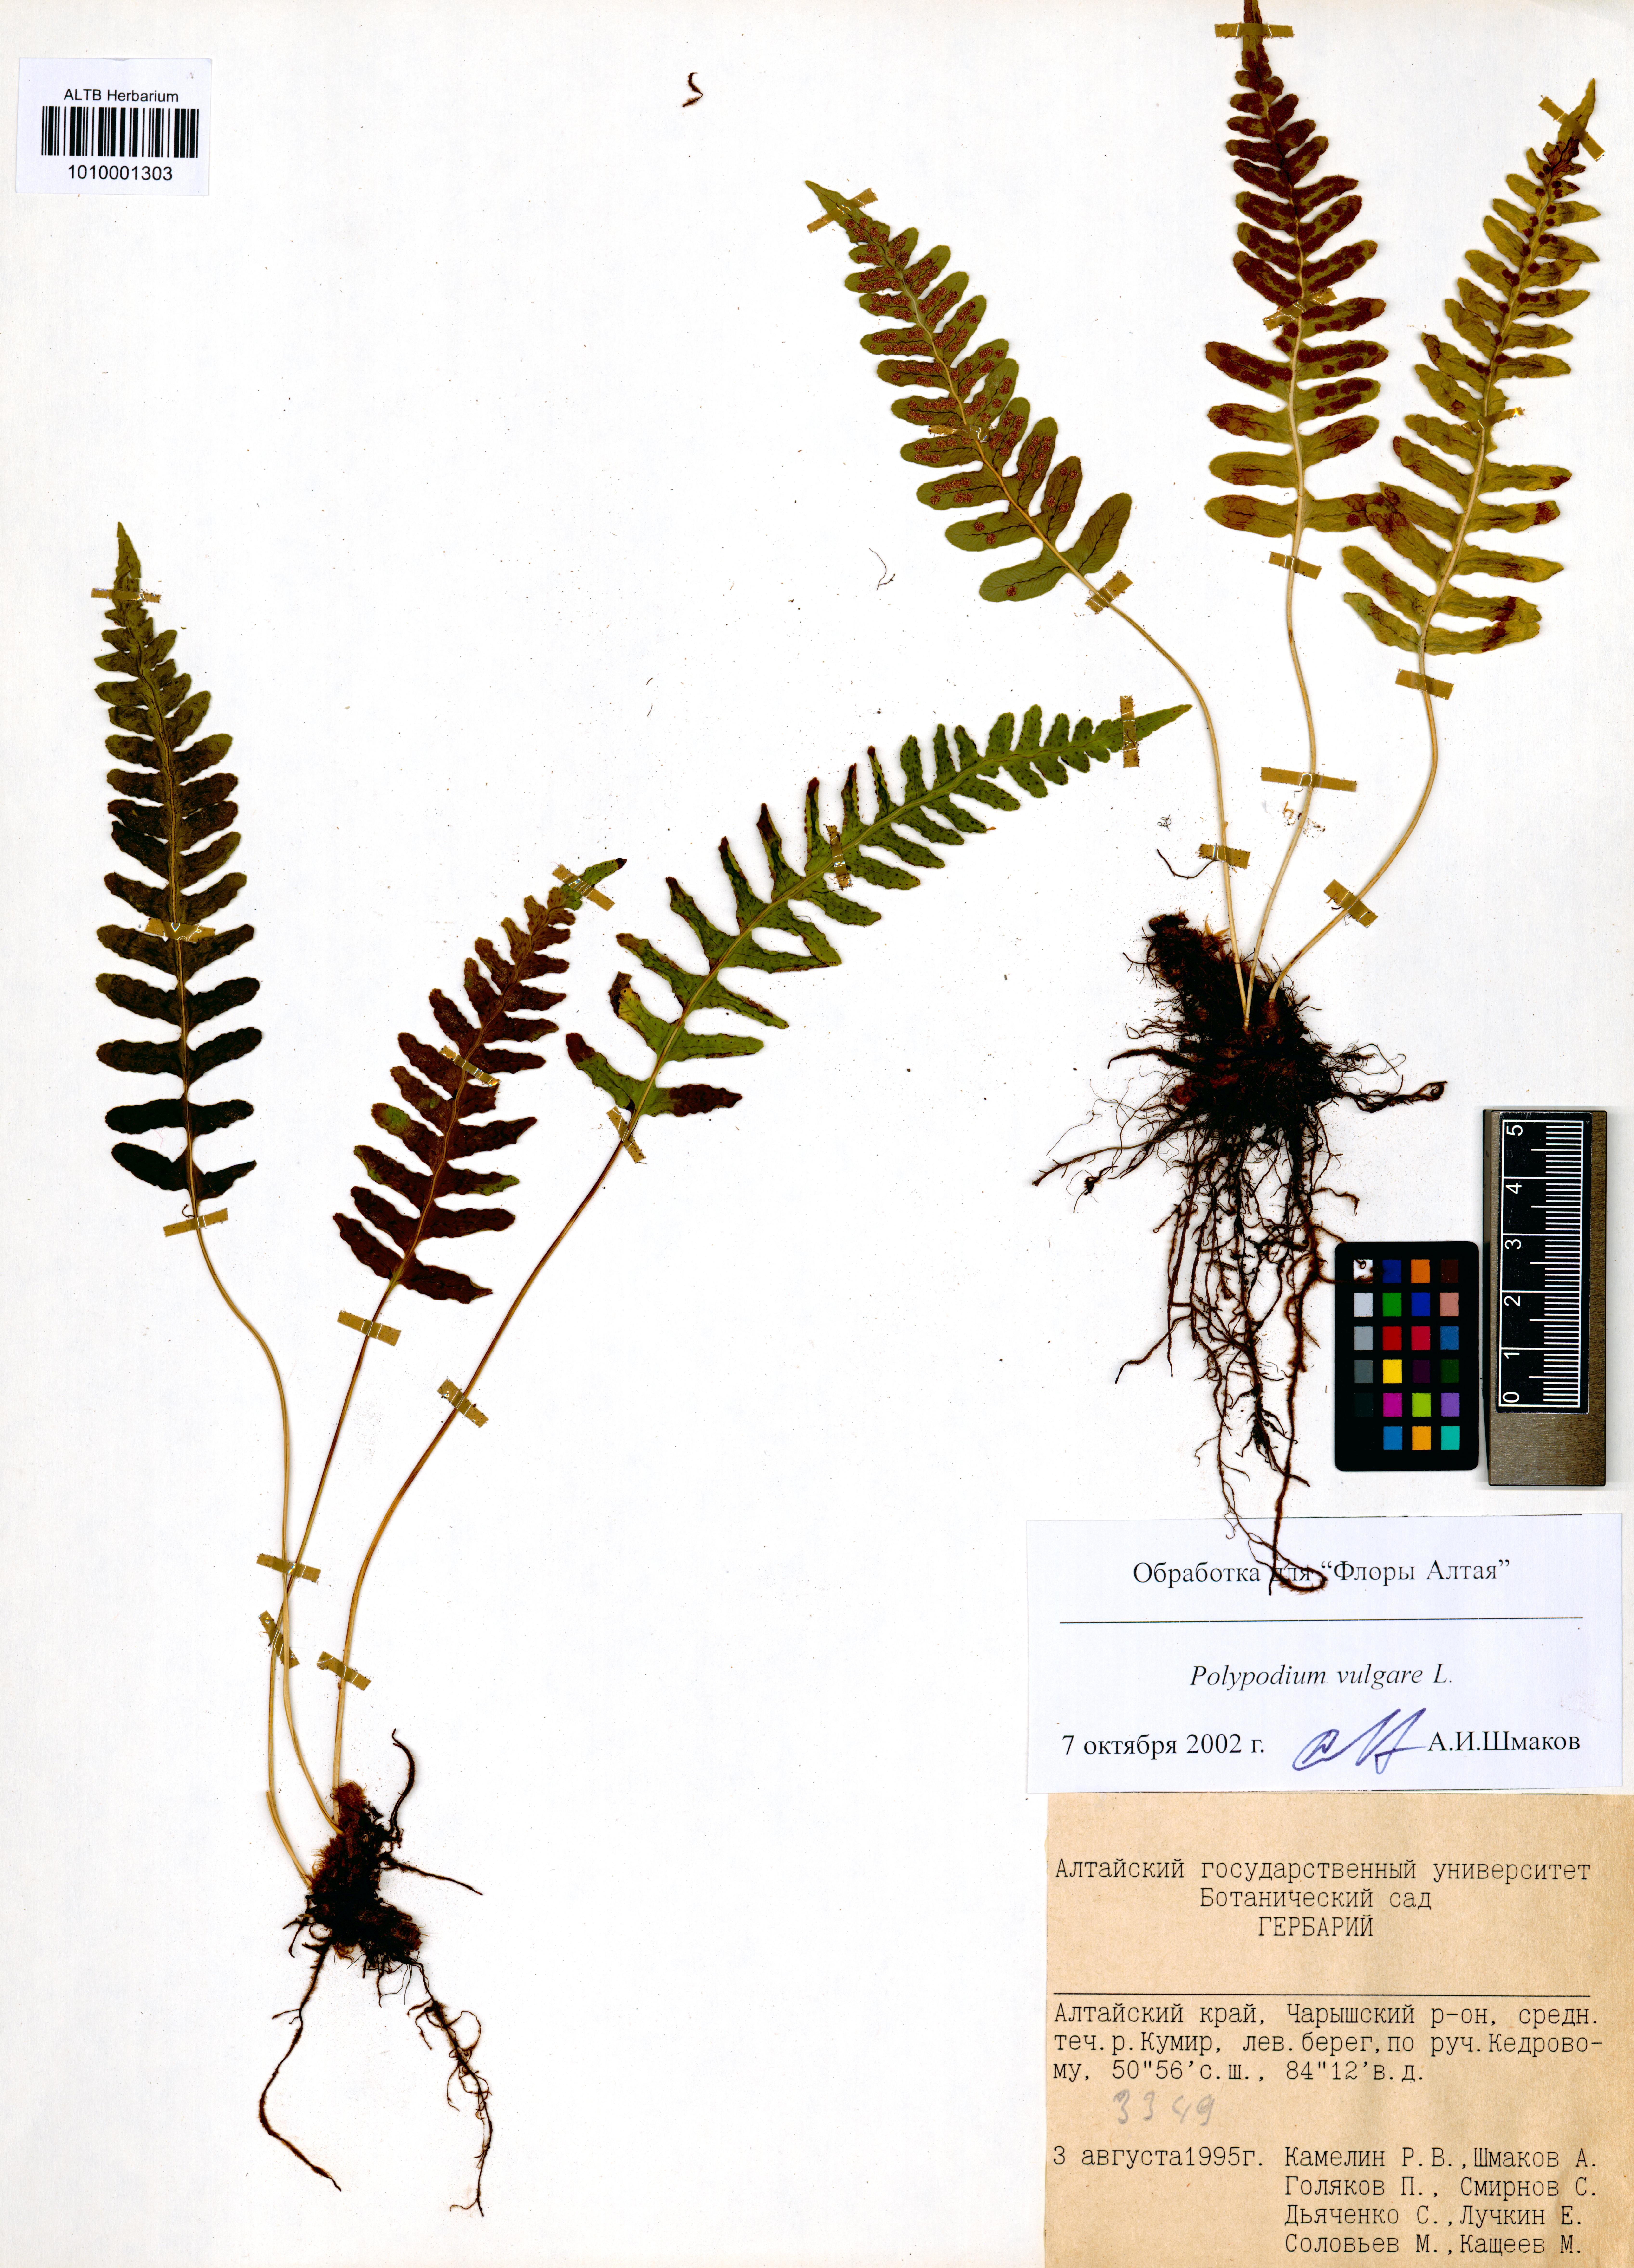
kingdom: Plantae
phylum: Tracheophyta
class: Polypodiopsida
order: Polypodiales
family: Polypodiaceae
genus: Polypodium
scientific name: Polypodium vulgare
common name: Common polypody
